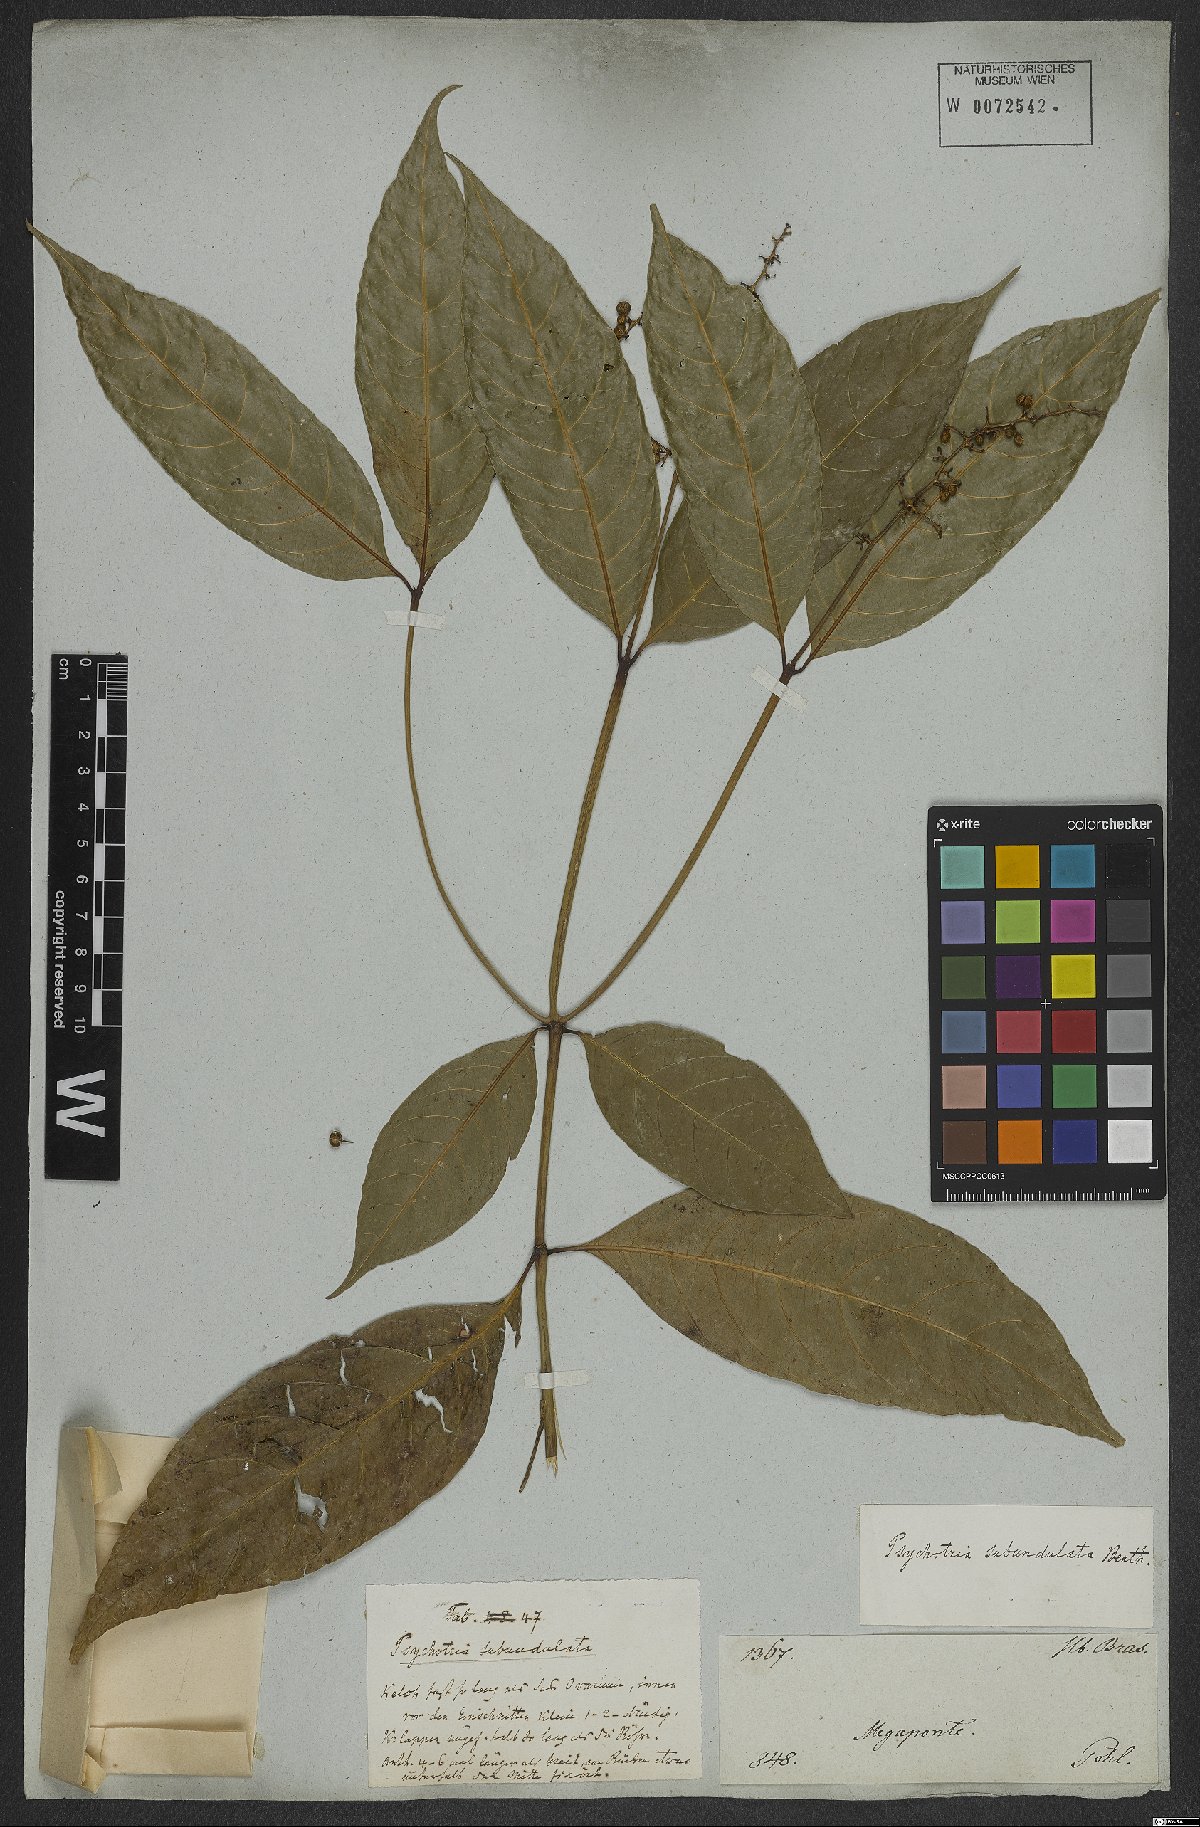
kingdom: Plantae
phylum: Tracheophyta
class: Magnoliopsida
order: Gentianales
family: Rubiaceae
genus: Palicourea
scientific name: Palicourea subundulata
